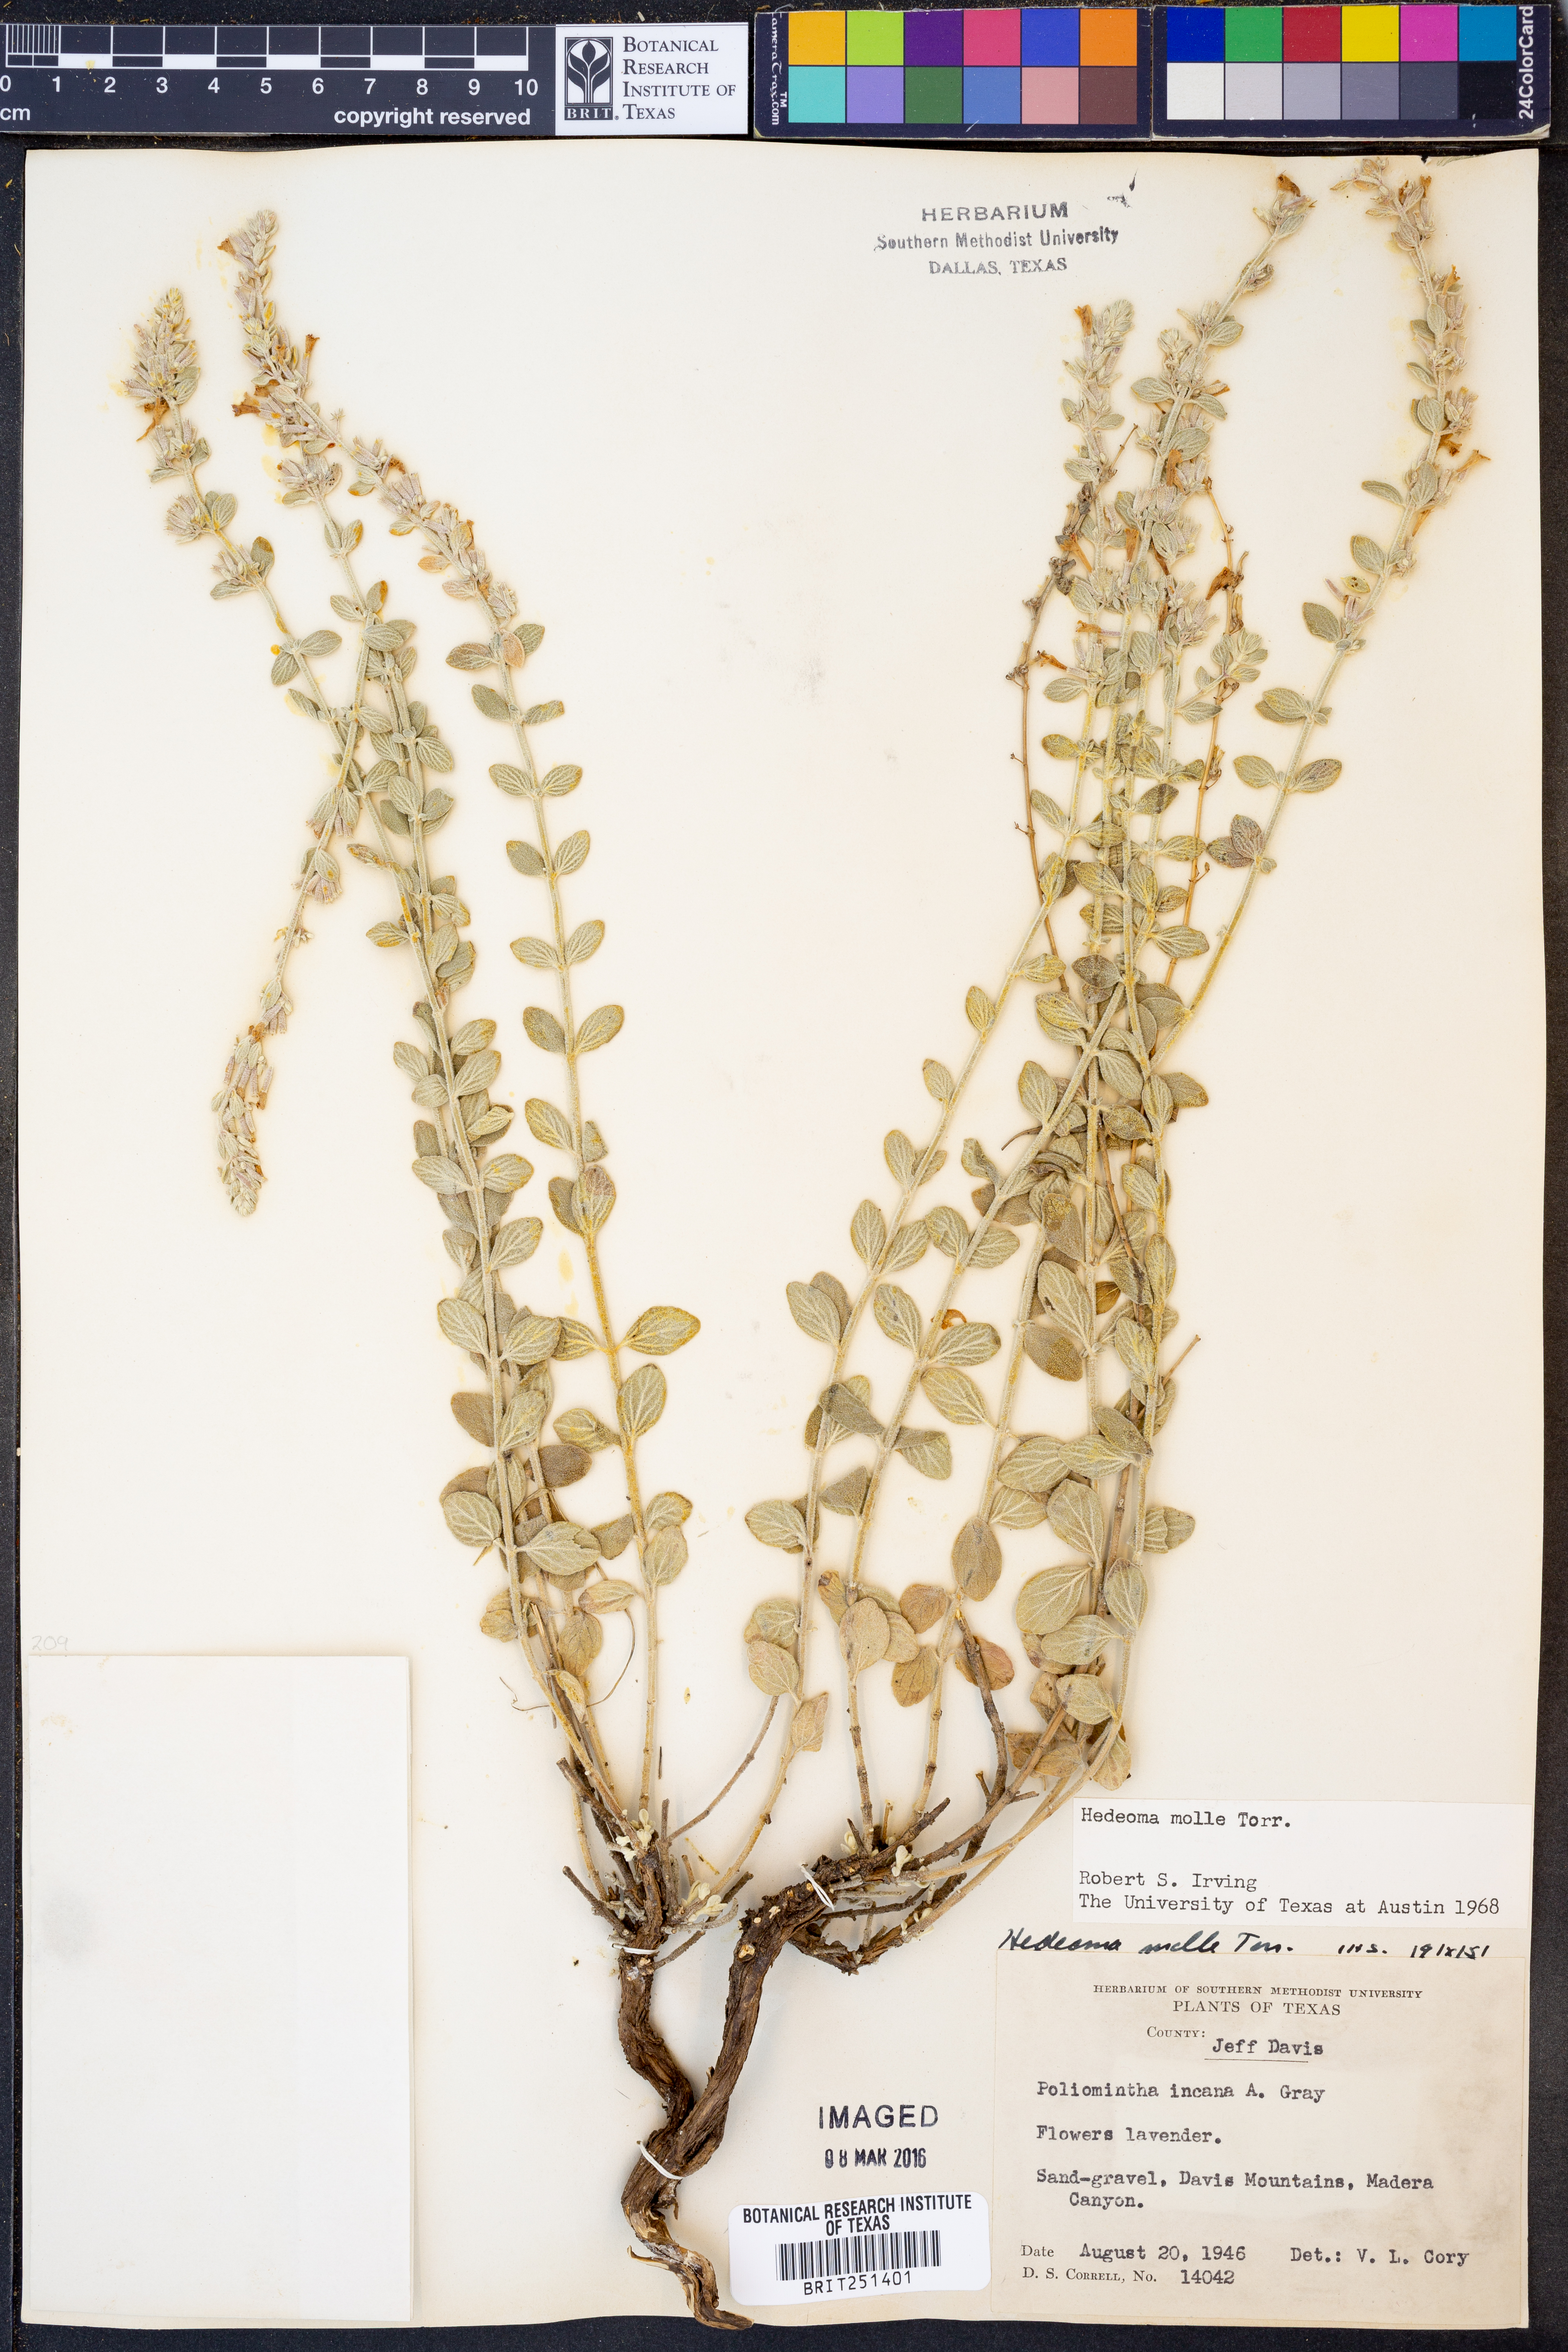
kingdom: Plantae
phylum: Tracheophyta
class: Magnoliopsida
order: Lamiales
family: Lamiaceae
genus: Hedeoma
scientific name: Hedeoma mollis
